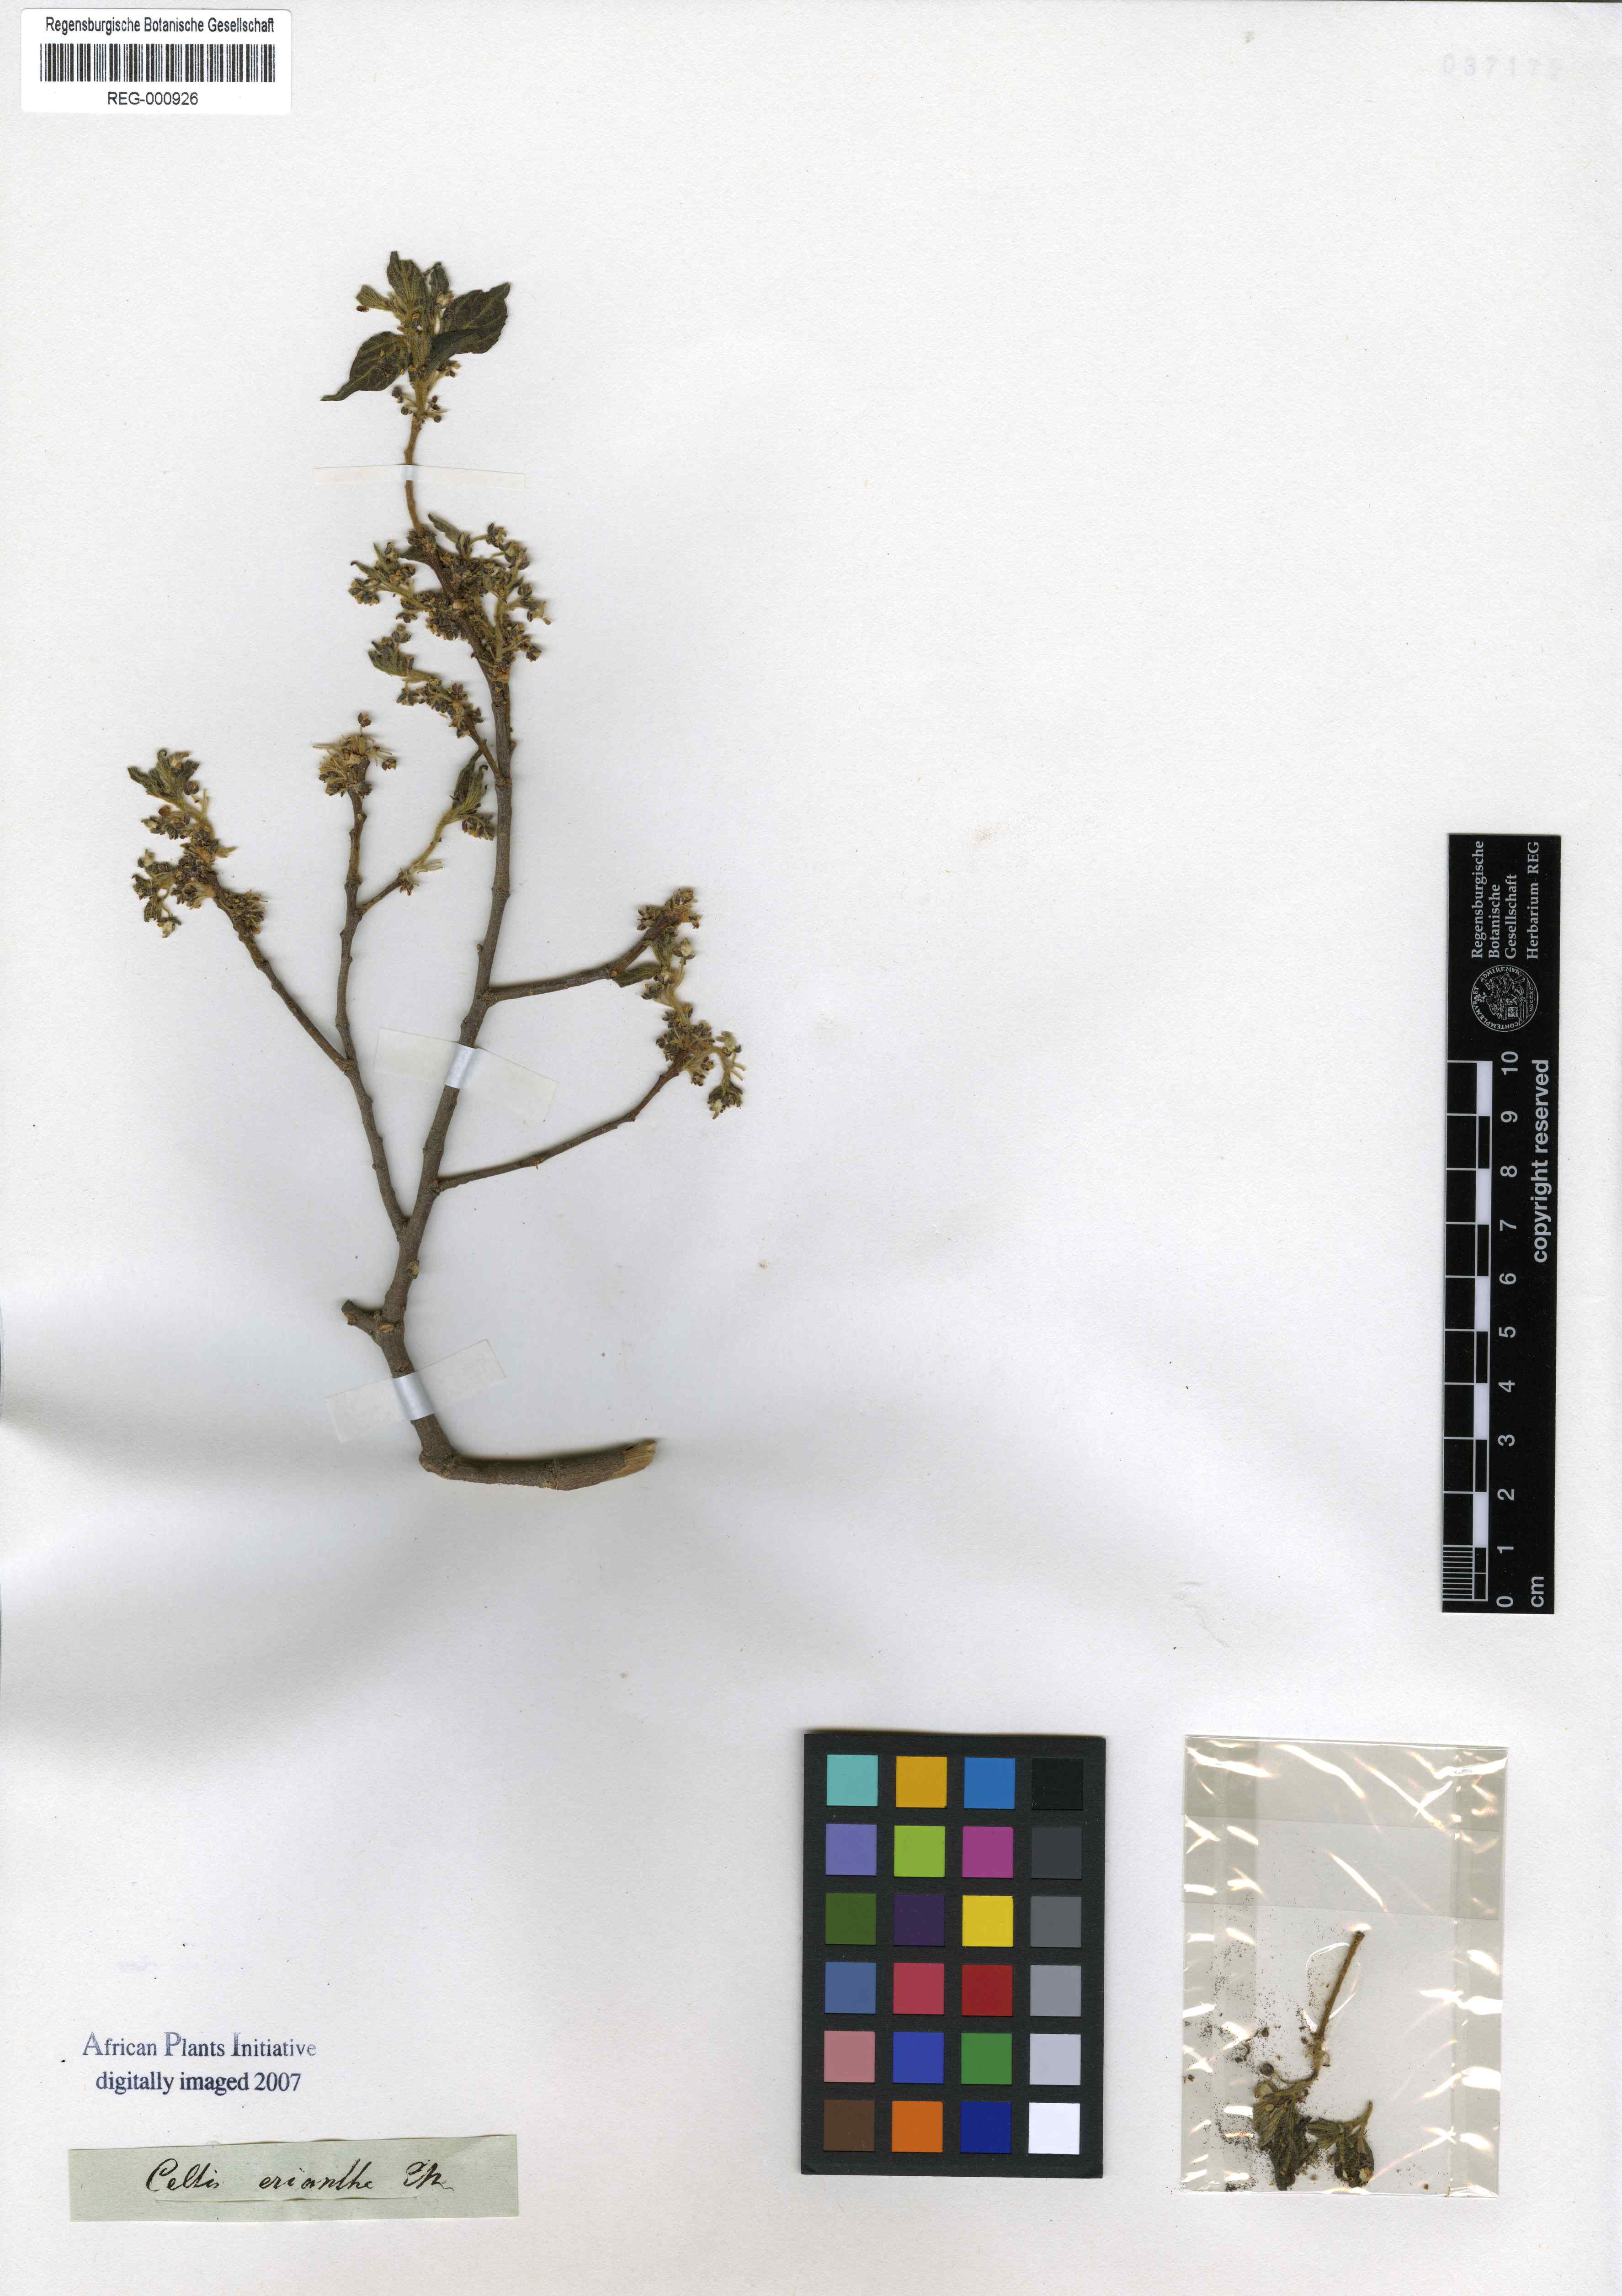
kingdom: Plantae
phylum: Tracheophyta
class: Magnoliopsida
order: Rosales
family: Cannabaceae
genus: Celtis
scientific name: Celtis africana
